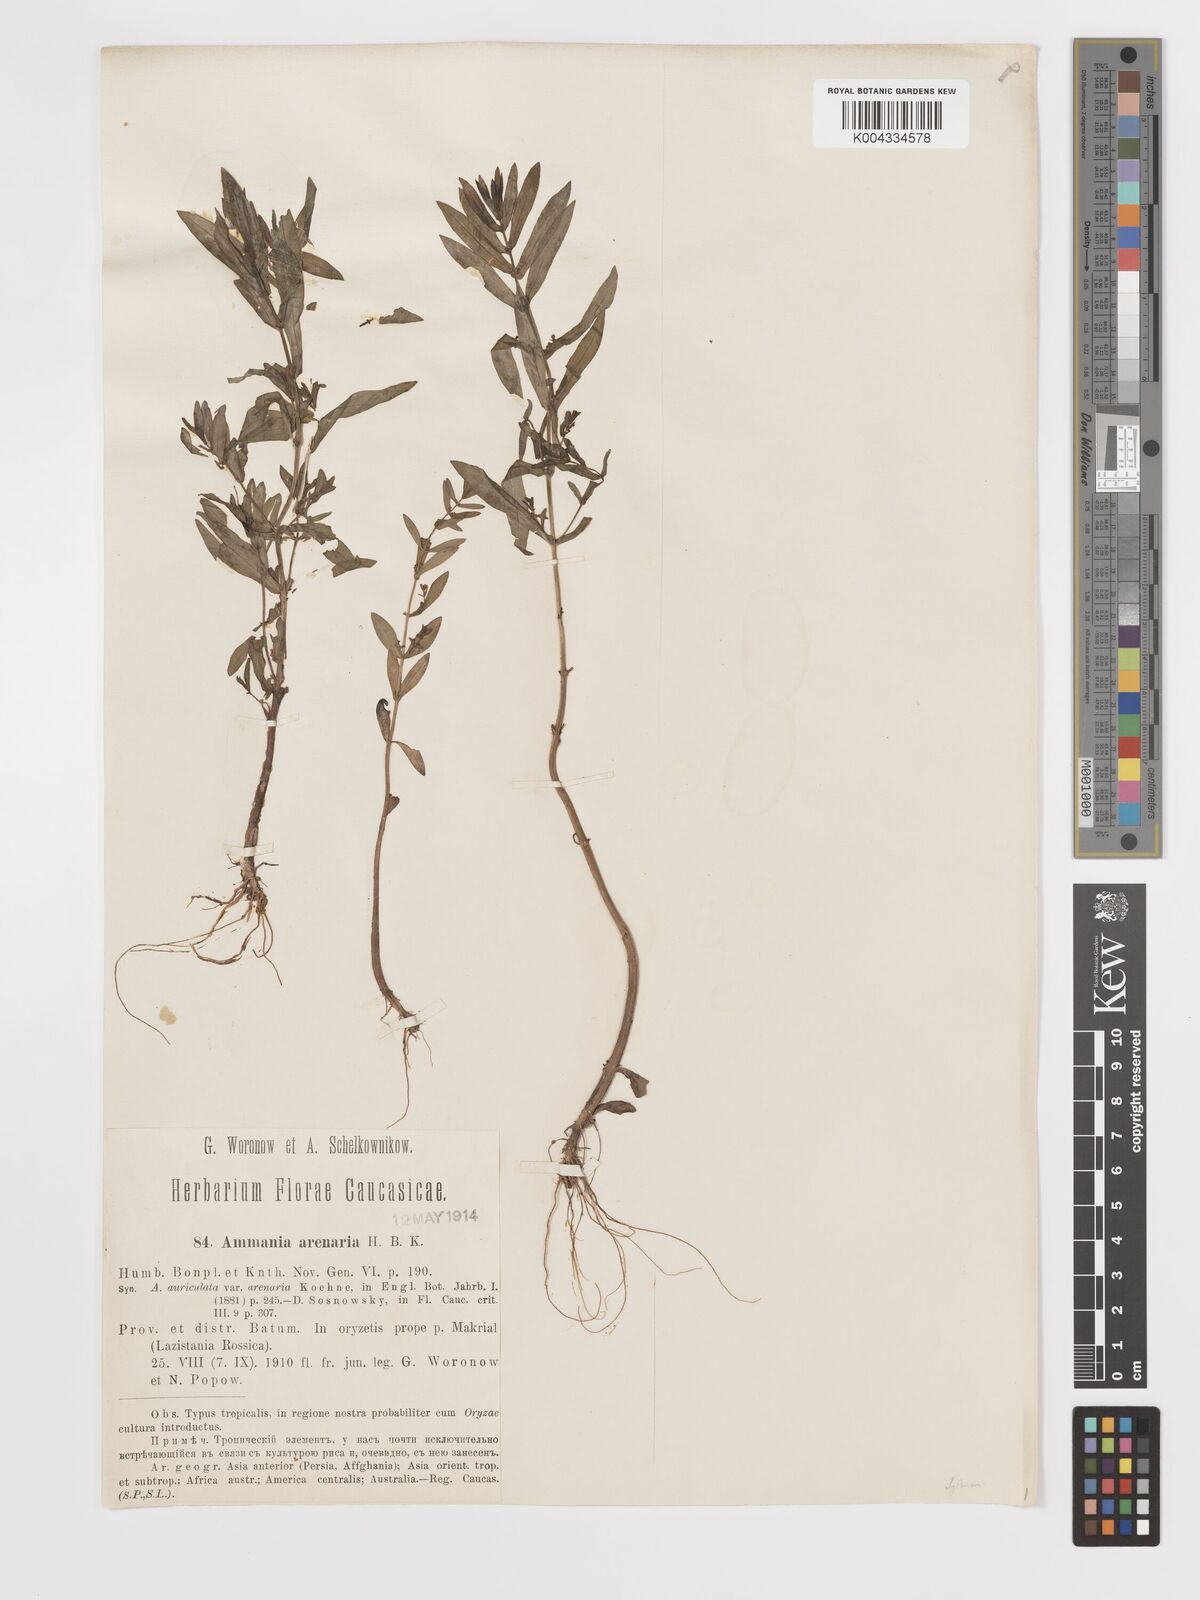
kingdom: Plantae
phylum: Tracheophyta
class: Magnoliopsida
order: Myrtales
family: Lythraceae
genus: Ammannia
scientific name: Ammannia auriculata
